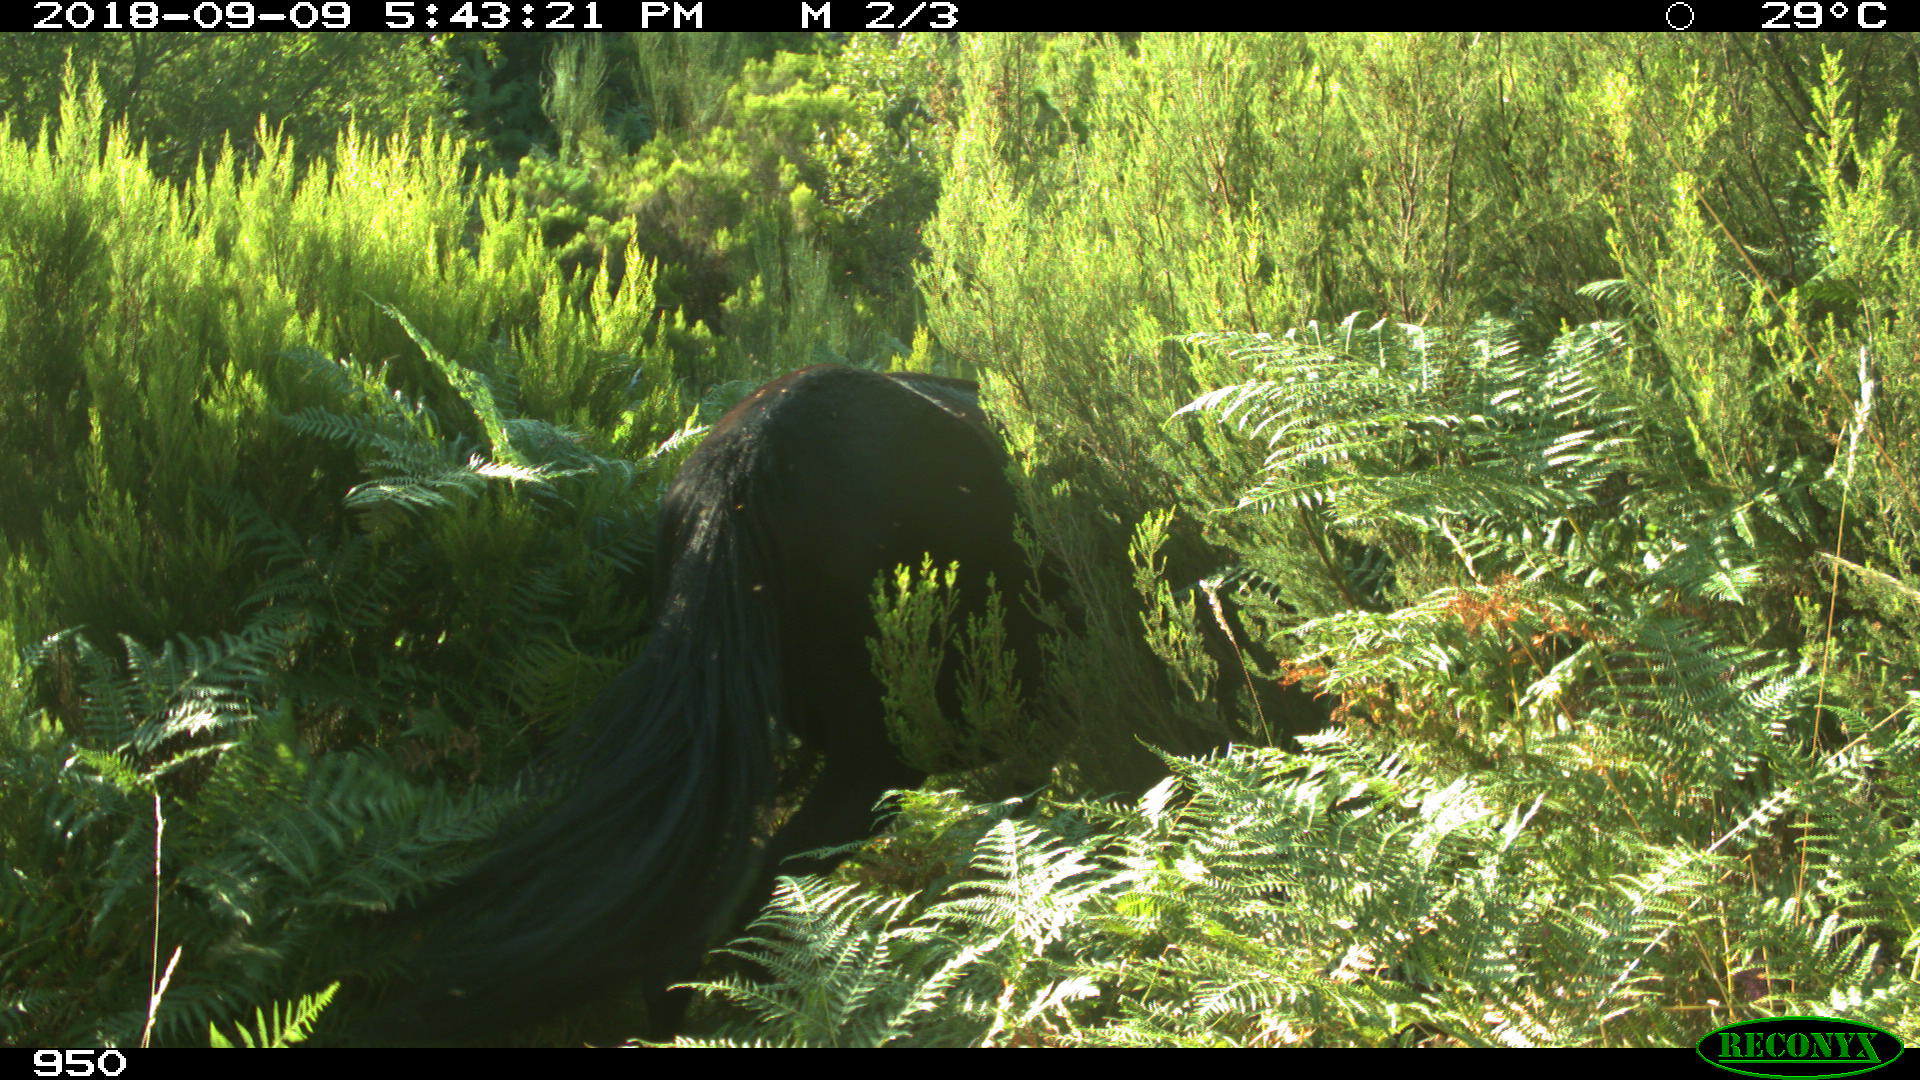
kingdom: Animalia
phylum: Chordata
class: Mammalia
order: Perissodactyla
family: Equidae
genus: Equus
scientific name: Equus caballus
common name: Horse
